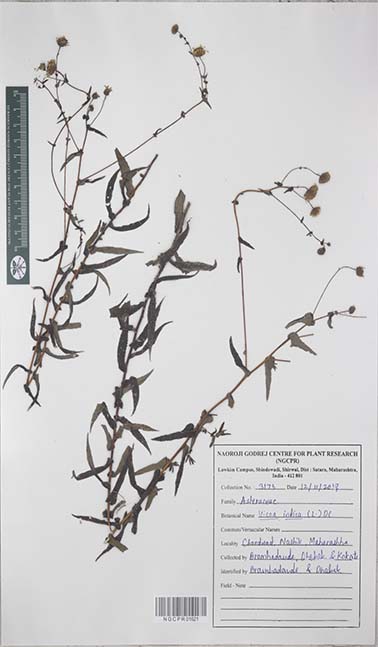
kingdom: Plantae
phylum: Tracheophyta
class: Magnoliopsida
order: Asterales
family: Asteraceae
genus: Vicoa
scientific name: Vicoa indica
